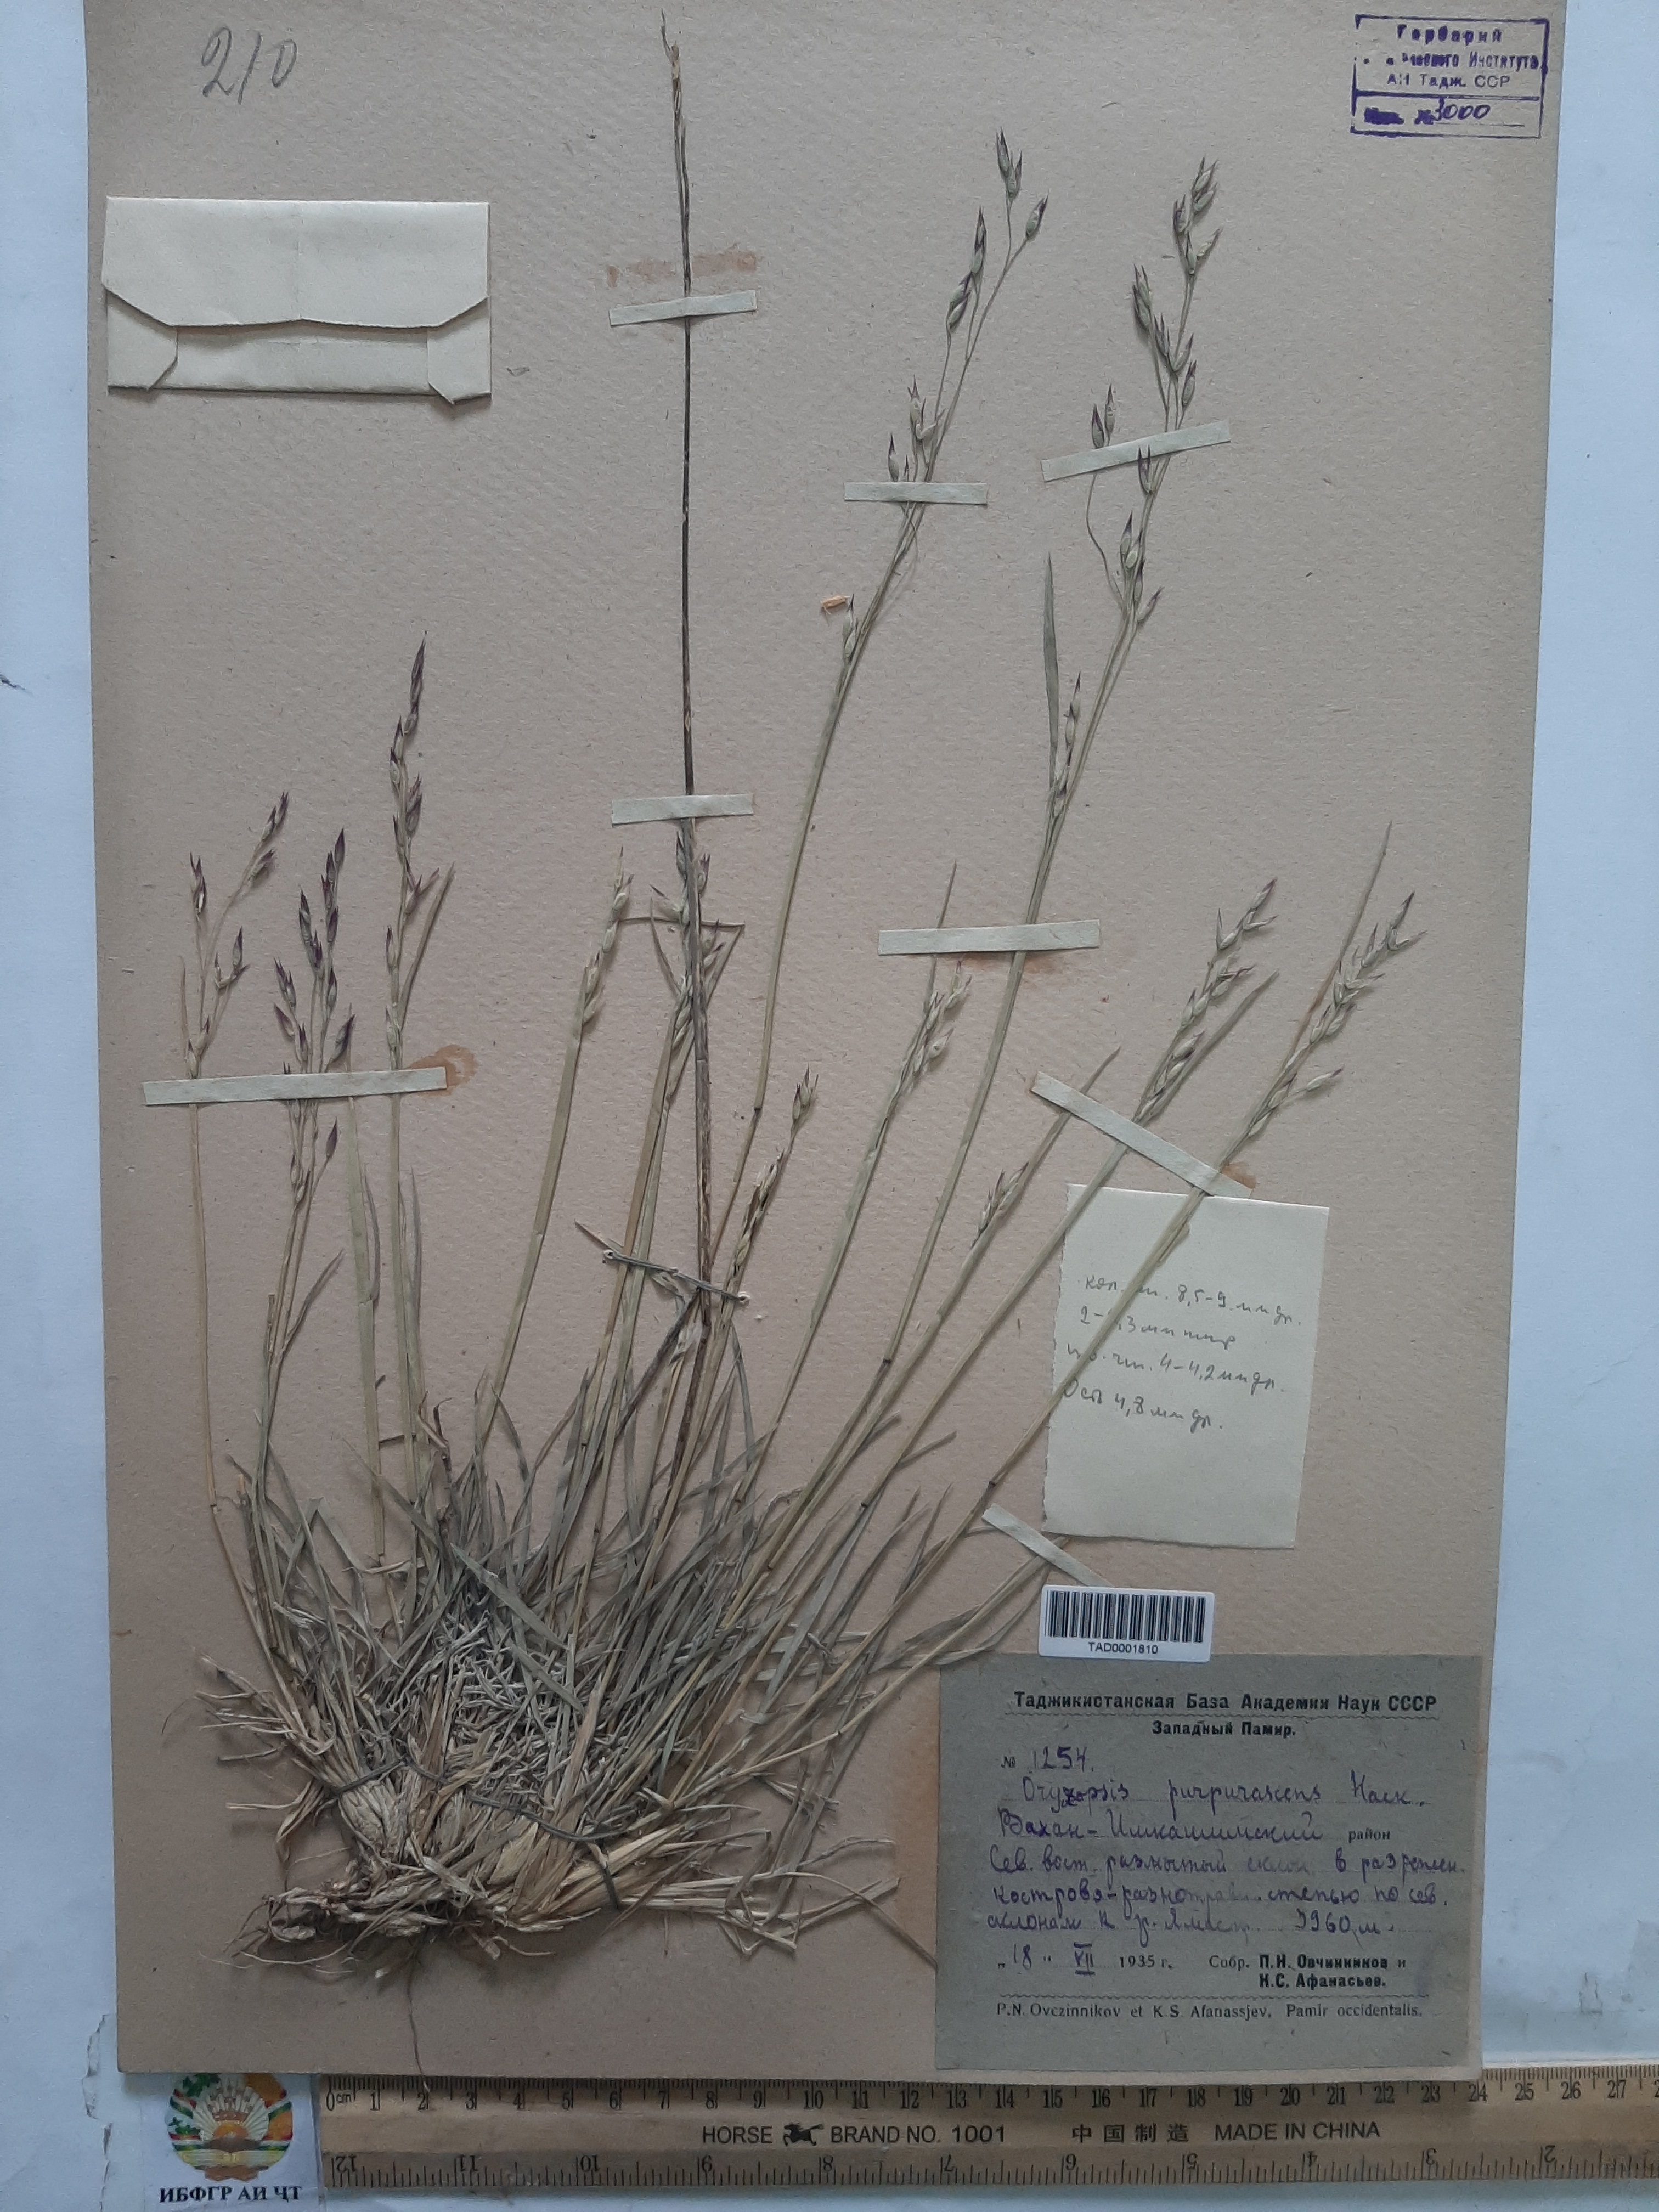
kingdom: Plantae
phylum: Tracheophyta
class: Liliopsida
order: Poales
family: Poaceae
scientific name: Poaceae
